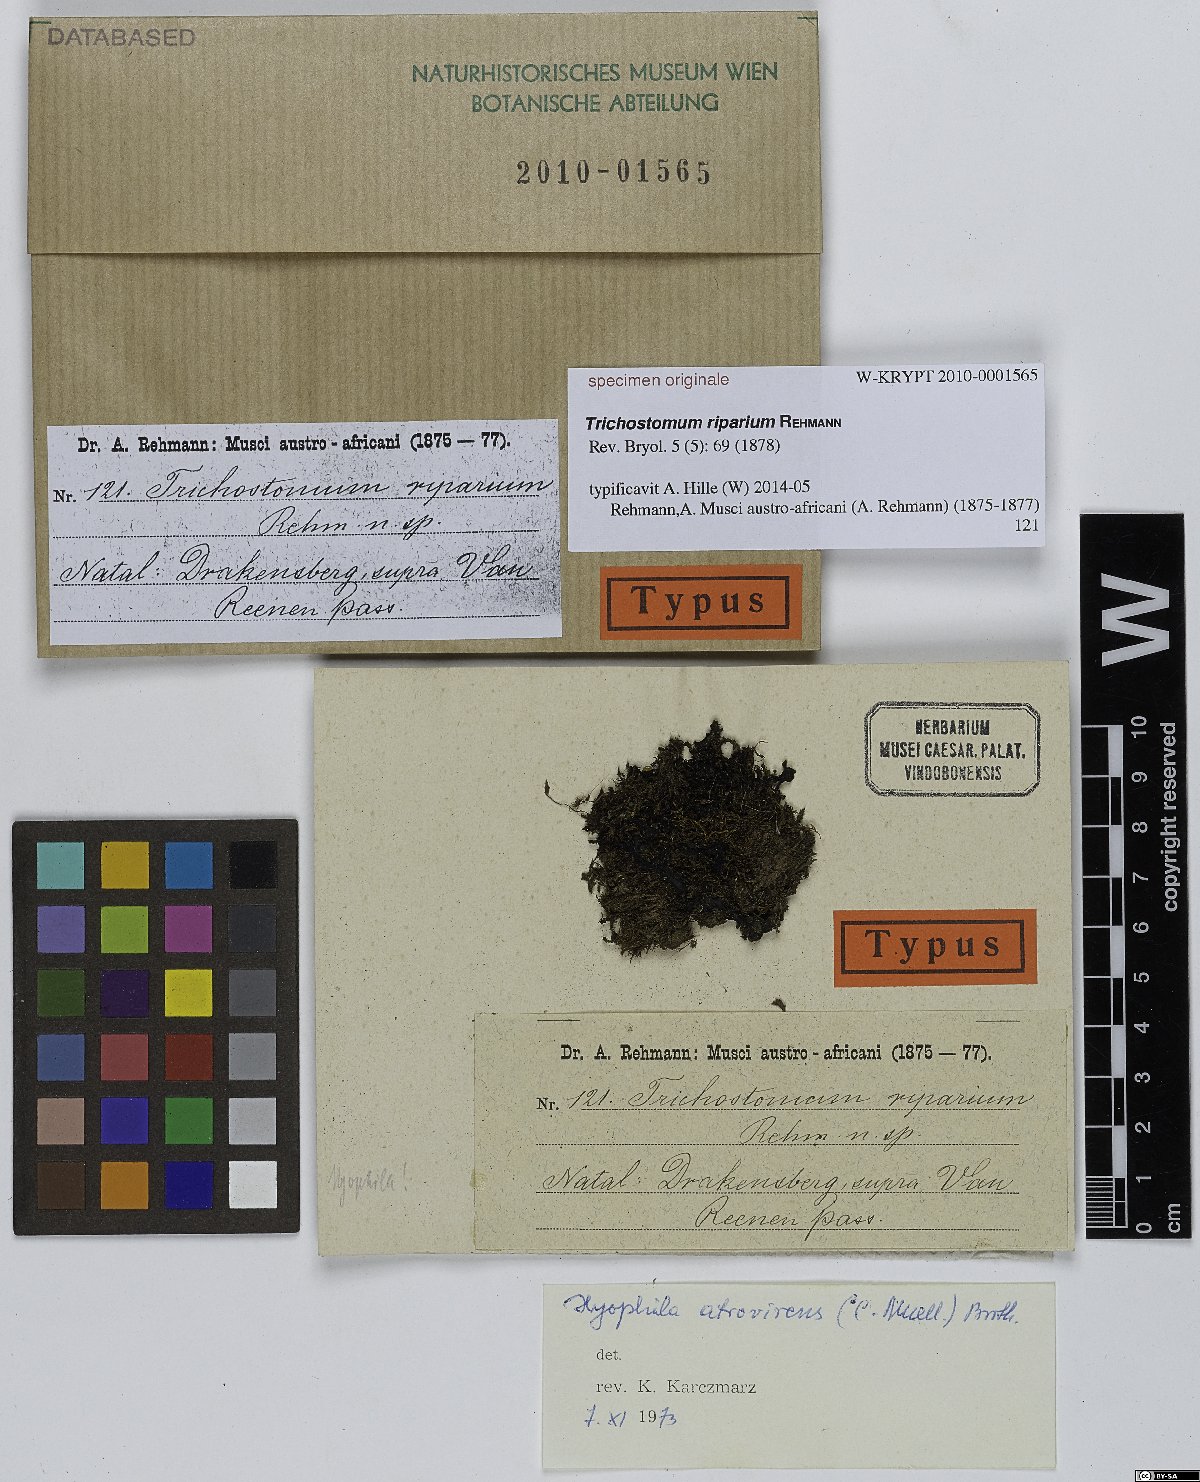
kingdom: Plantae
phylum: Bryophyta
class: Bryopsida
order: Pottiales
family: Pottiaceae
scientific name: Pottiaceae
